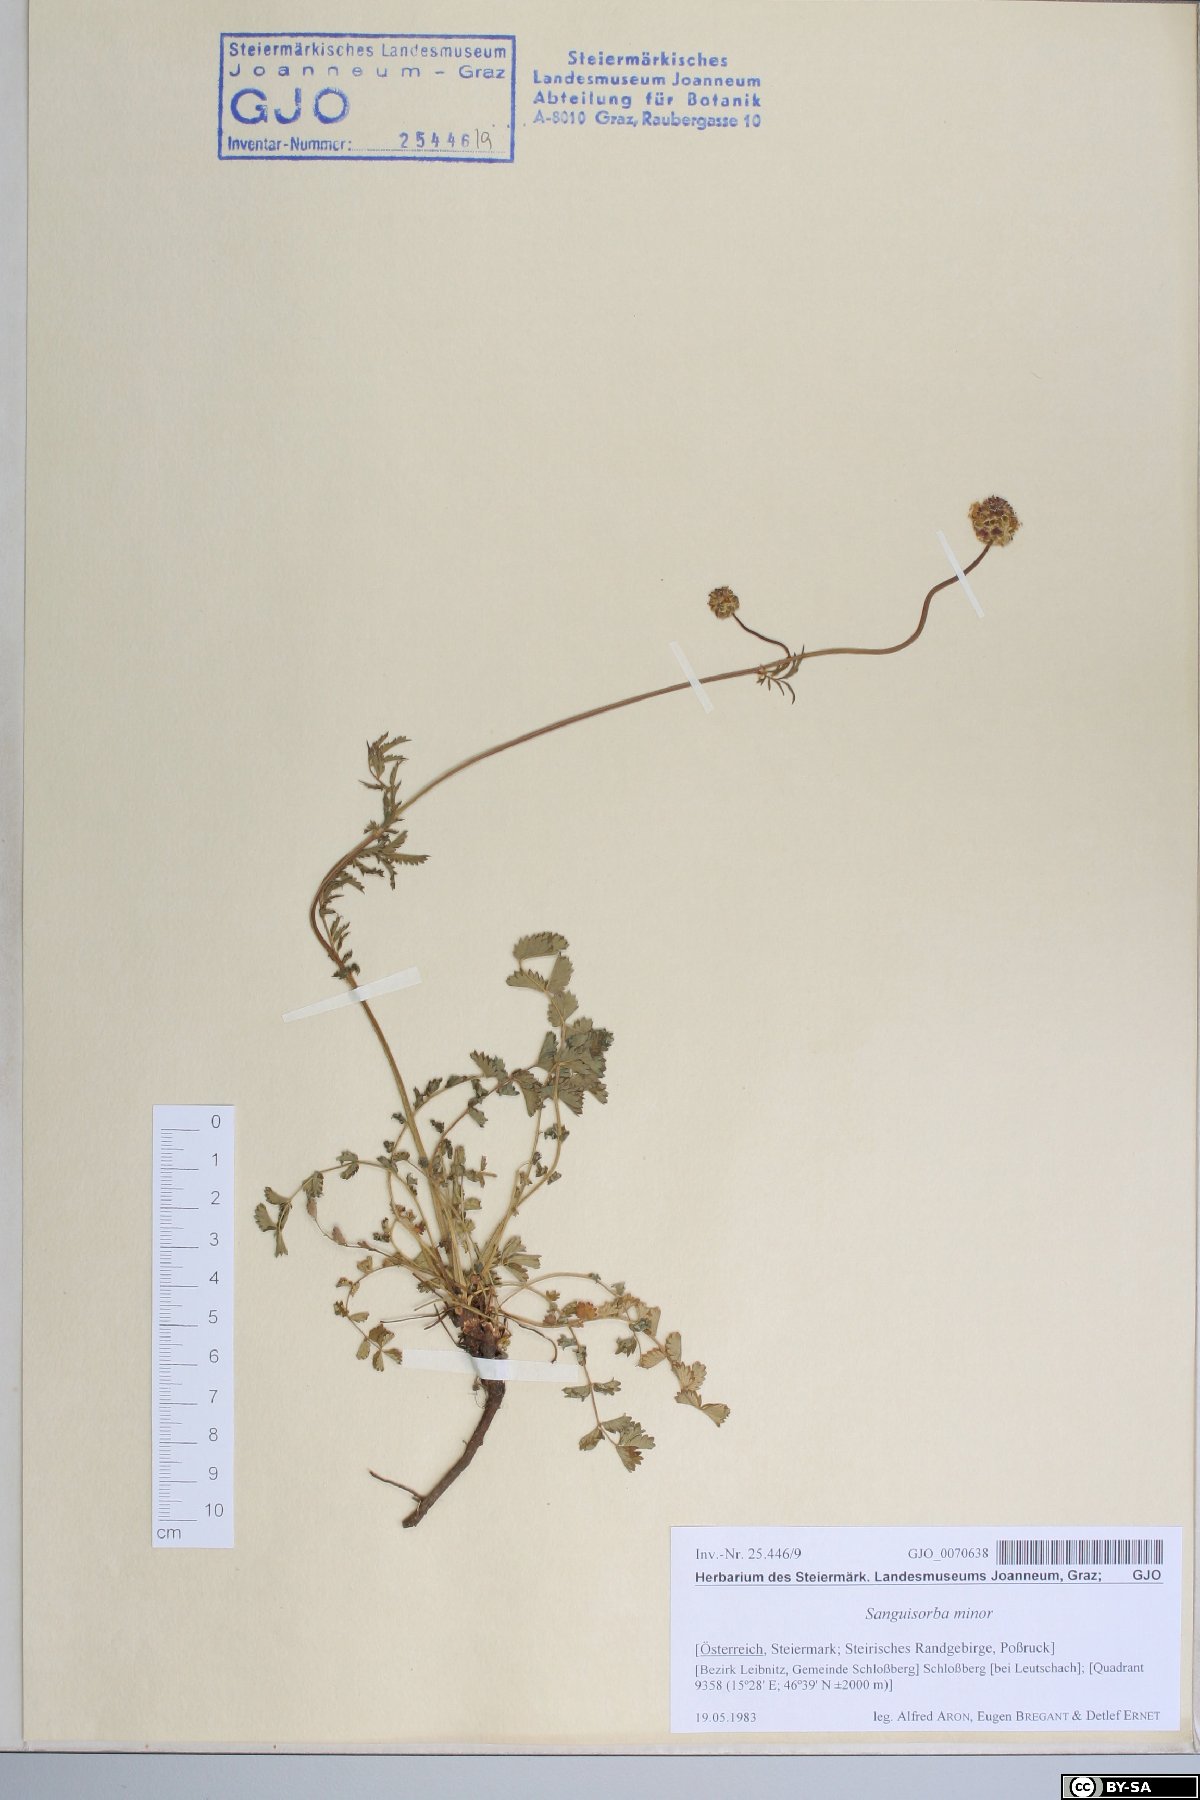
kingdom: Plantae
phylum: Tracheophyta
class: Magnoliopsida
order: Rosales
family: Rosaceae
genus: Poterium
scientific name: Poterium sanguisorba
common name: Salad burnet
